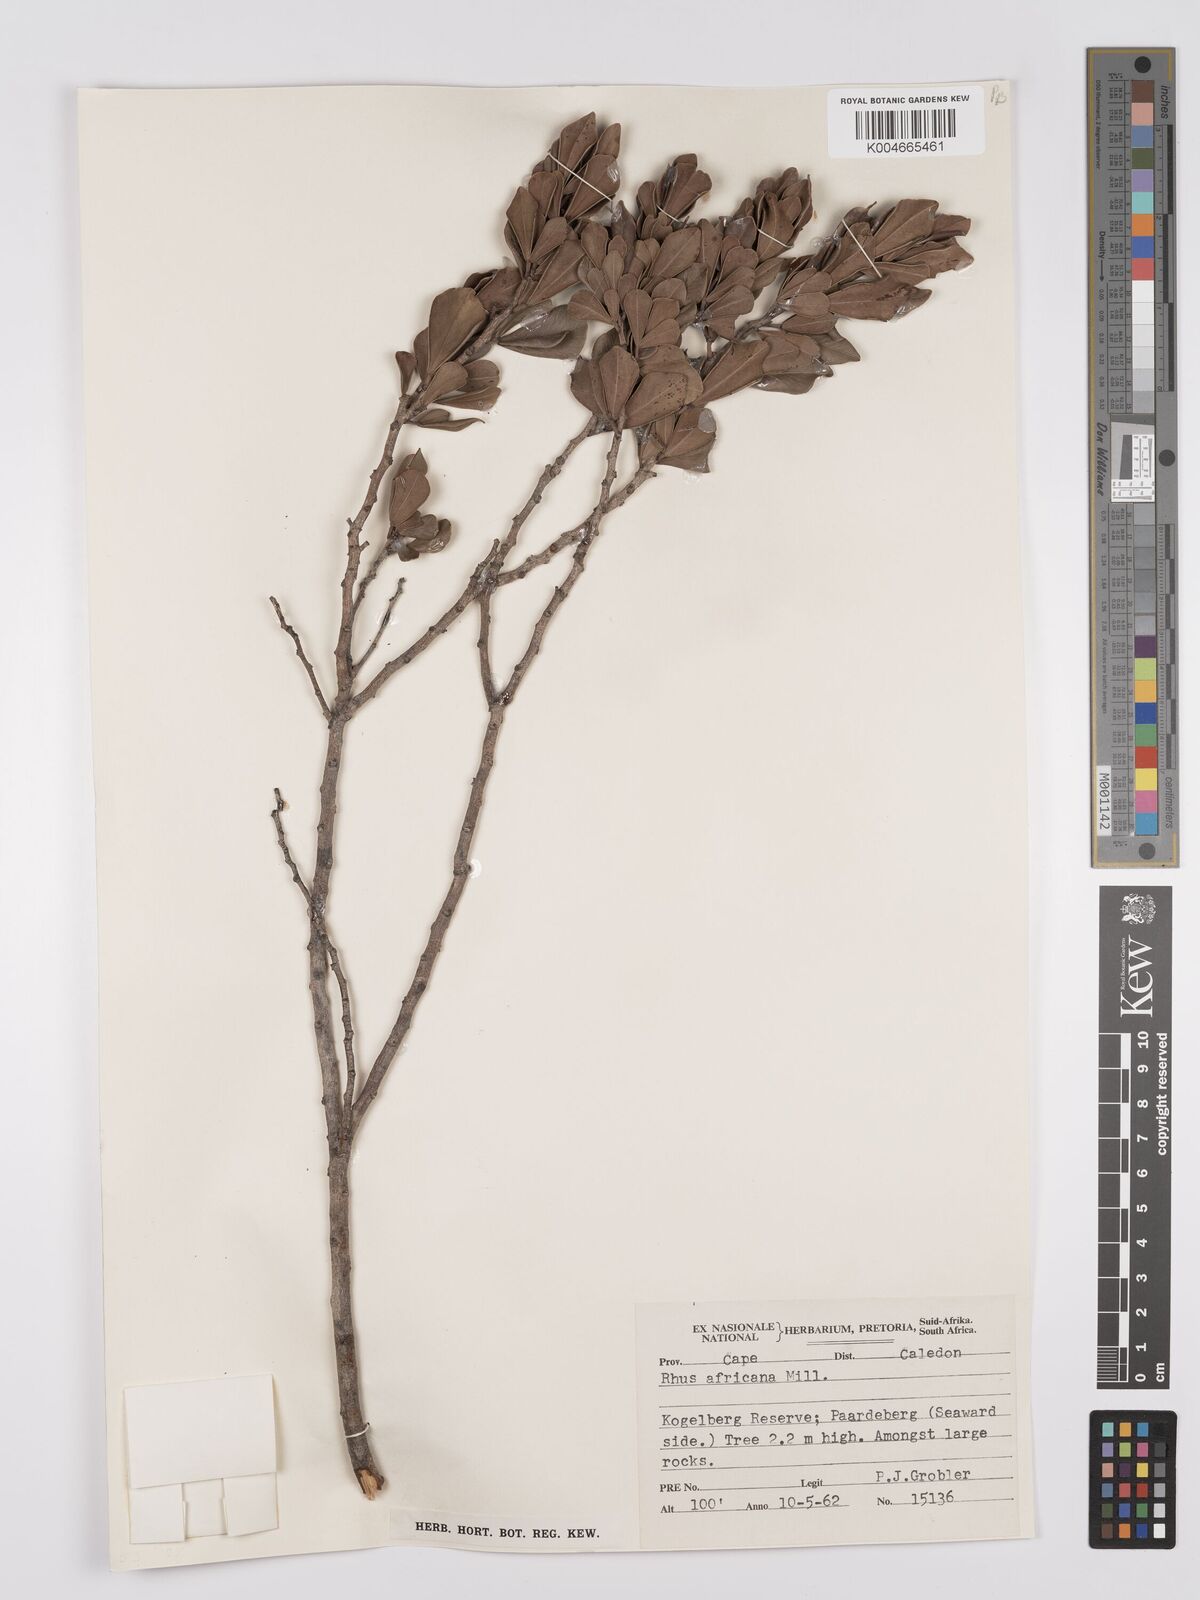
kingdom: Plantae
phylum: Tracheophyta
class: Magnoliopsida
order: Sapindales
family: Anacardiaceae
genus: Searsia
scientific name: Searsia lucida
